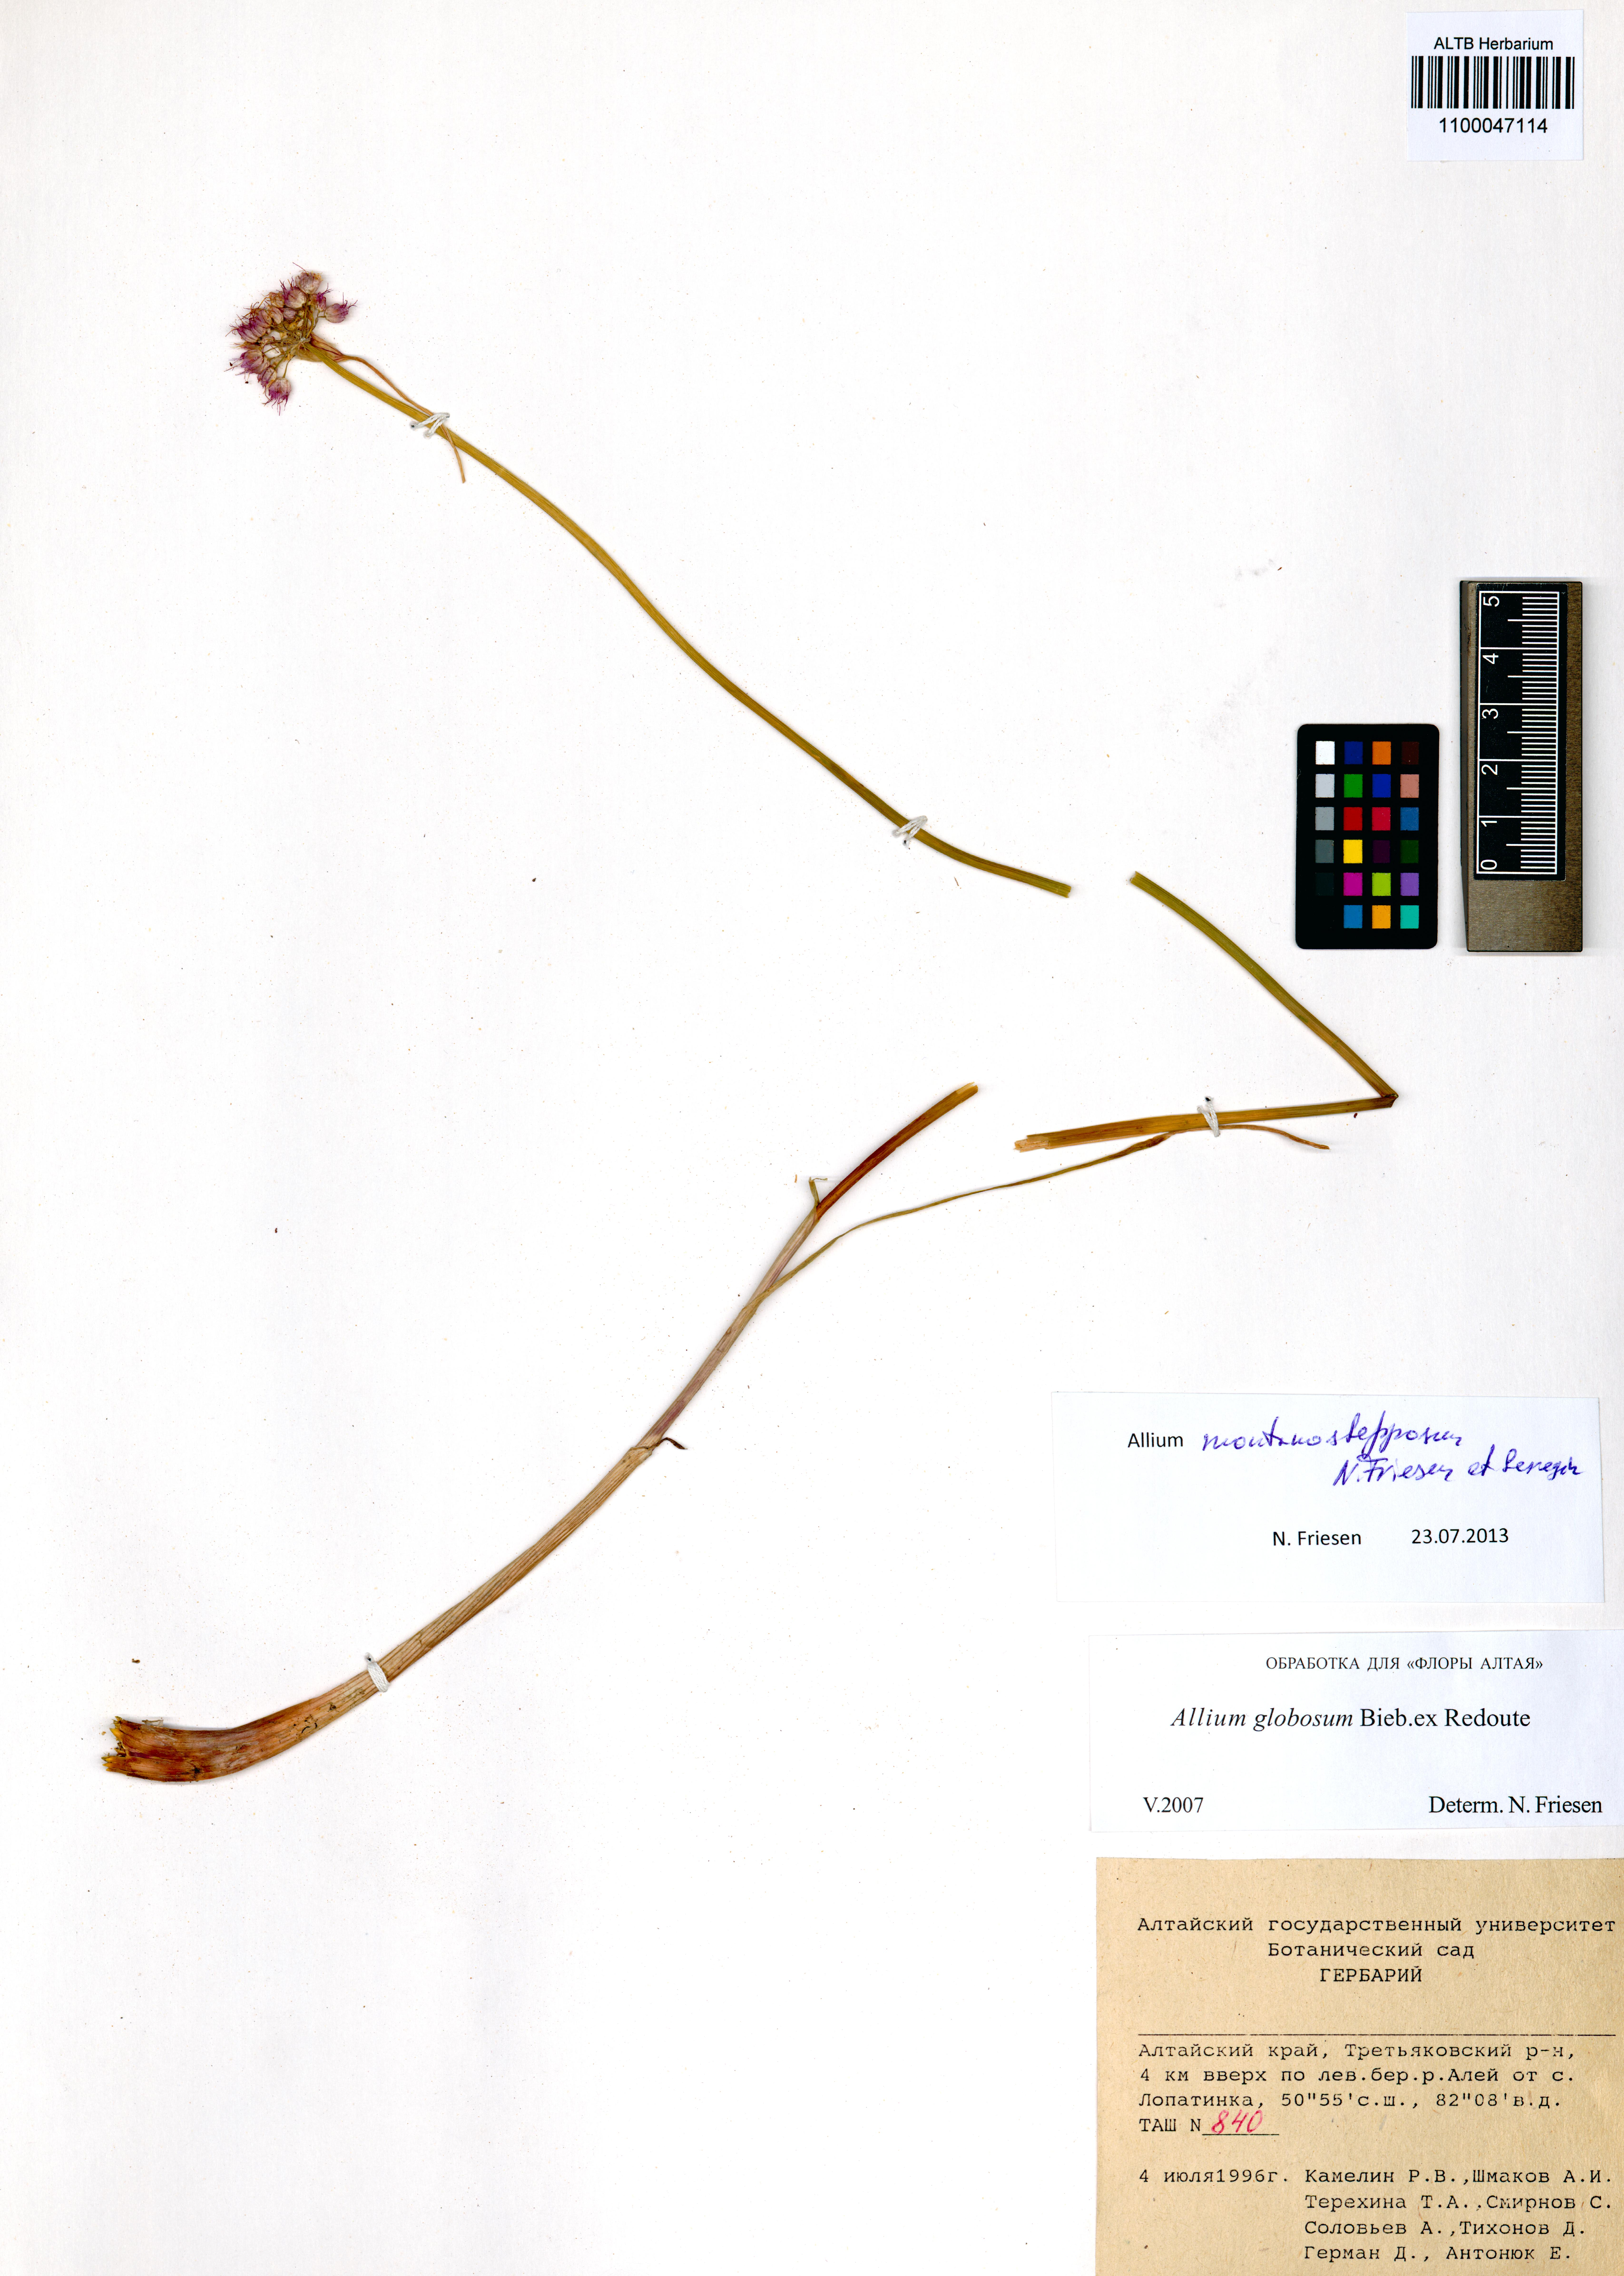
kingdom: Plantae
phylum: Tracheophyta
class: Liliopsida
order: Asparagales
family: Amaryllidaceae
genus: Allium
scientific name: Allium montanostepposum
